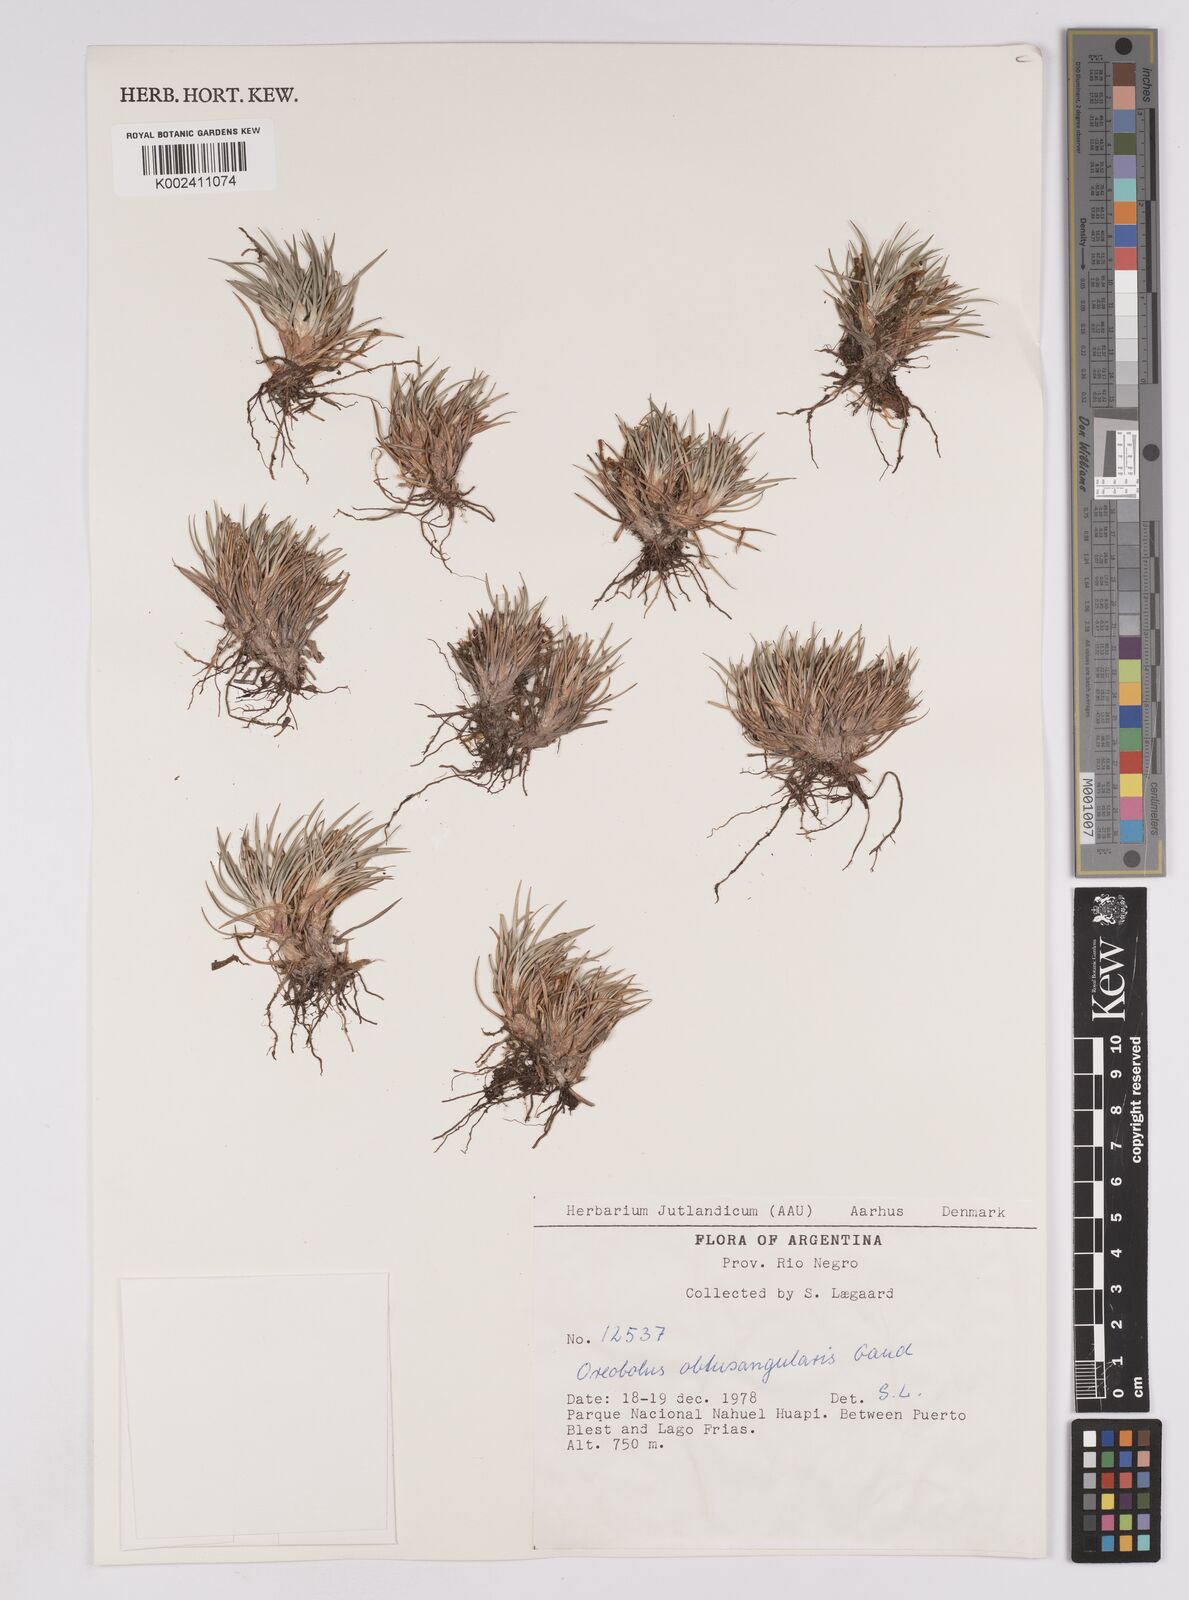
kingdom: Plantae
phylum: Tracheophyta
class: Liliopsida
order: Poales
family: Cyperaceae
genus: Oreobolus
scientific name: Oreobolus obtusangulus
